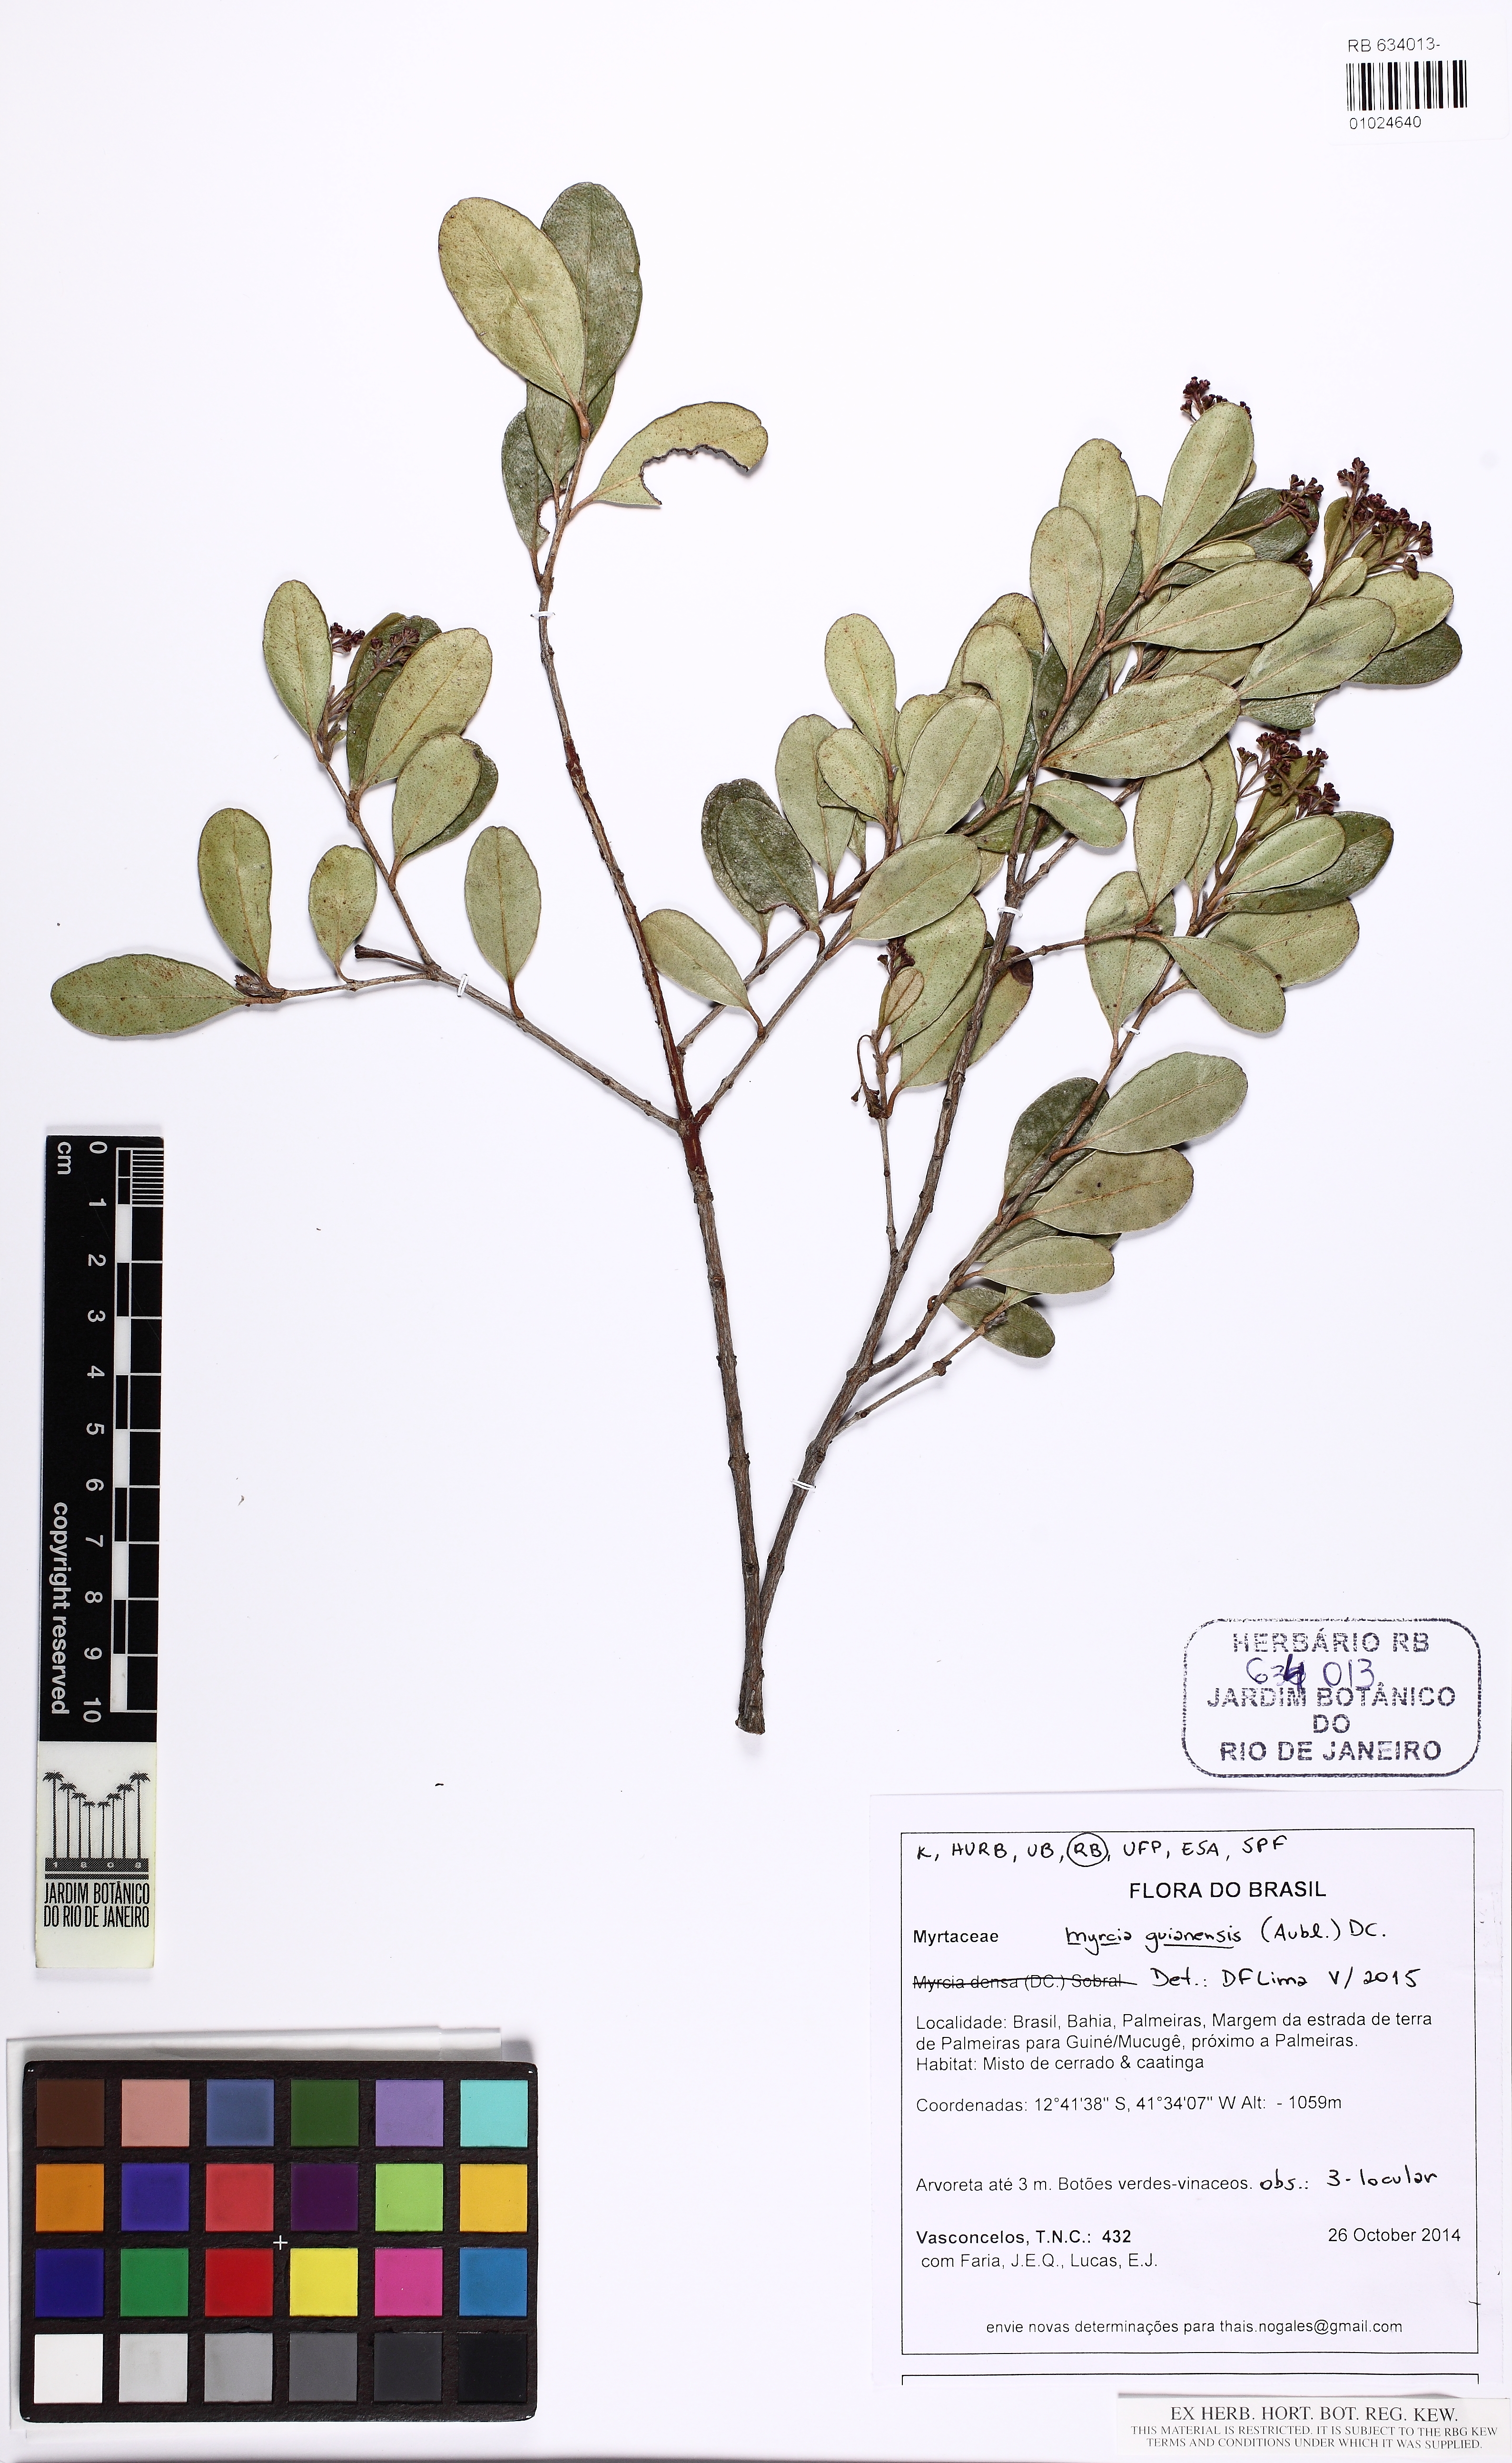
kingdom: Plantae
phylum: Tracheophyta
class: Magnoliopsida
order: Myrtales
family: Myrtaceae
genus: Myrcia
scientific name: Myrcia guianensis
